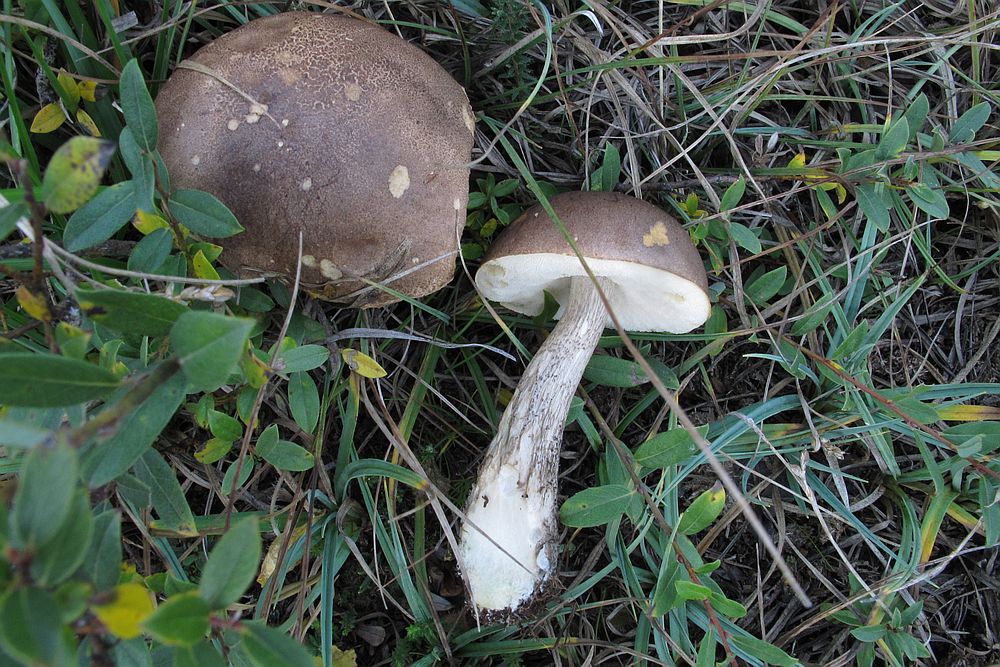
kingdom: Fungi
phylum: Basidiomycota
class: Agaricomycetes
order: Boletales
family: Boletaceae
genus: Leccinum
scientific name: Leccinum cyaneobasileucum
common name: almindelig skælrørhat
